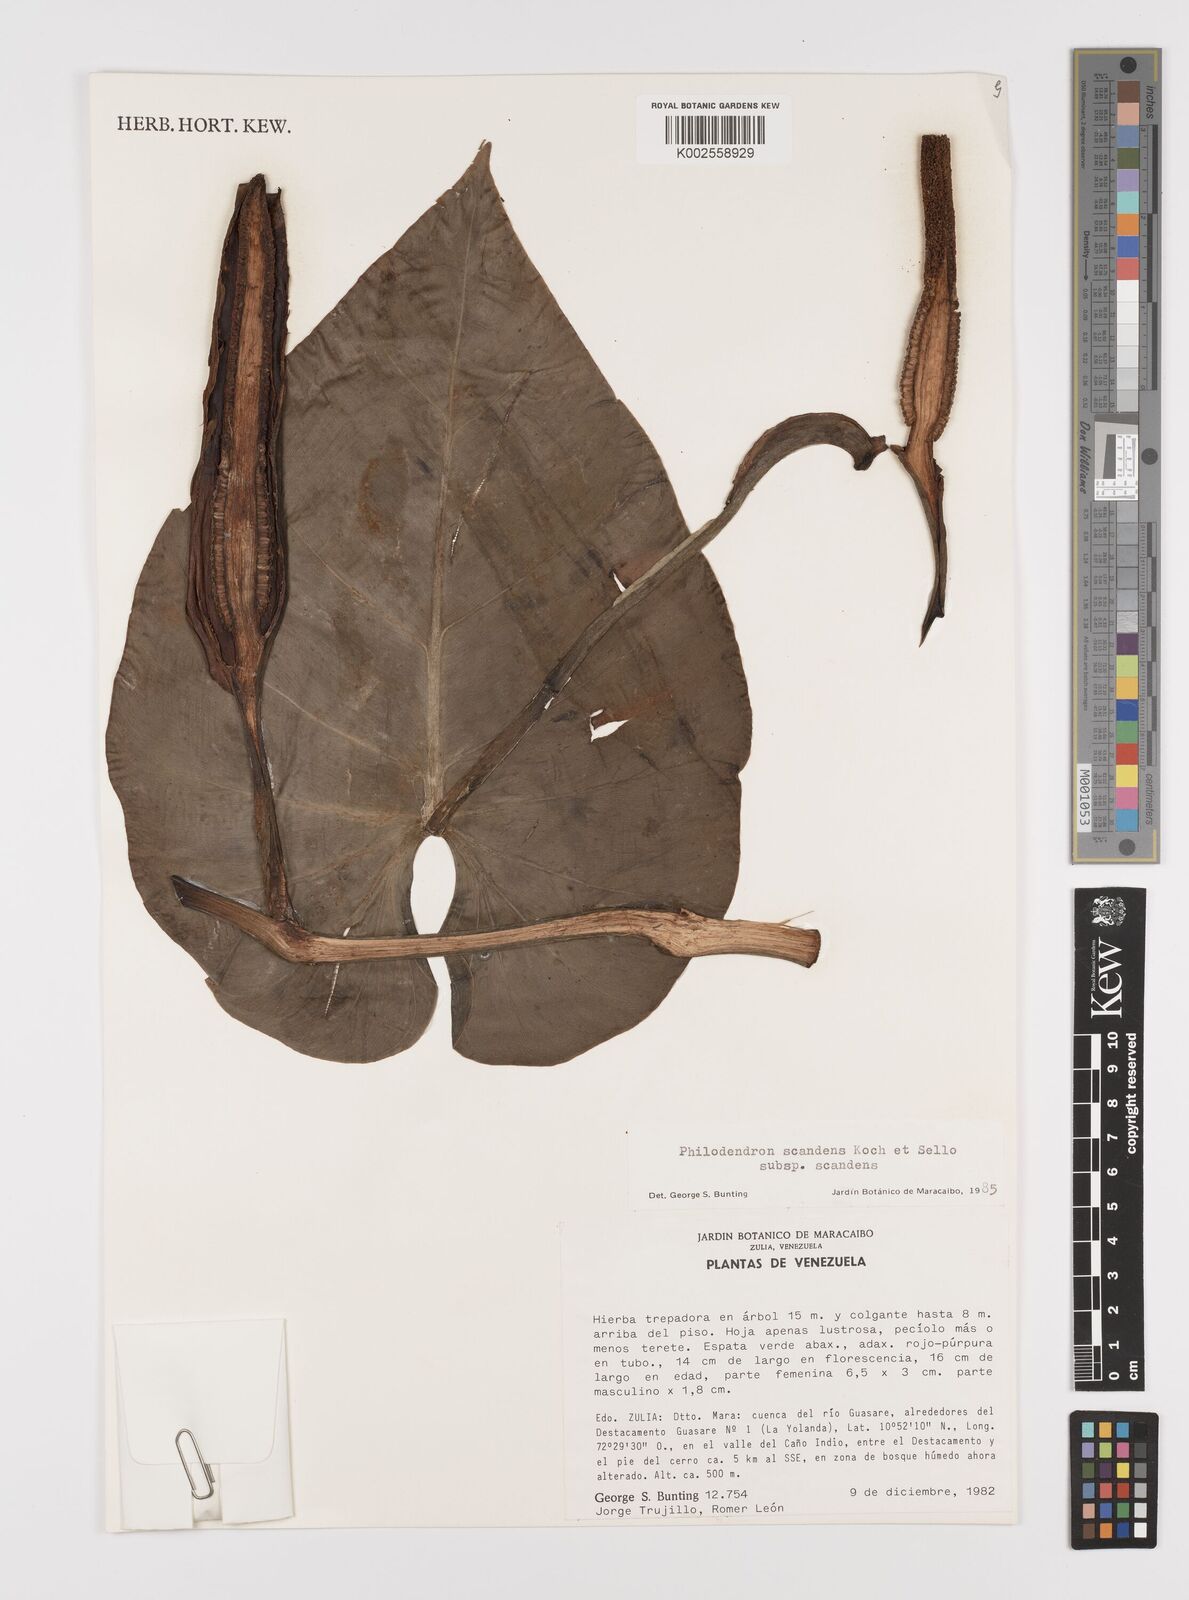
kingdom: Plantae
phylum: Tracheophyta
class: Liliopsida
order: Alismatales
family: Araceae
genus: Philodendron
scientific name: Philodendron hederaceum
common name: Vilevine
